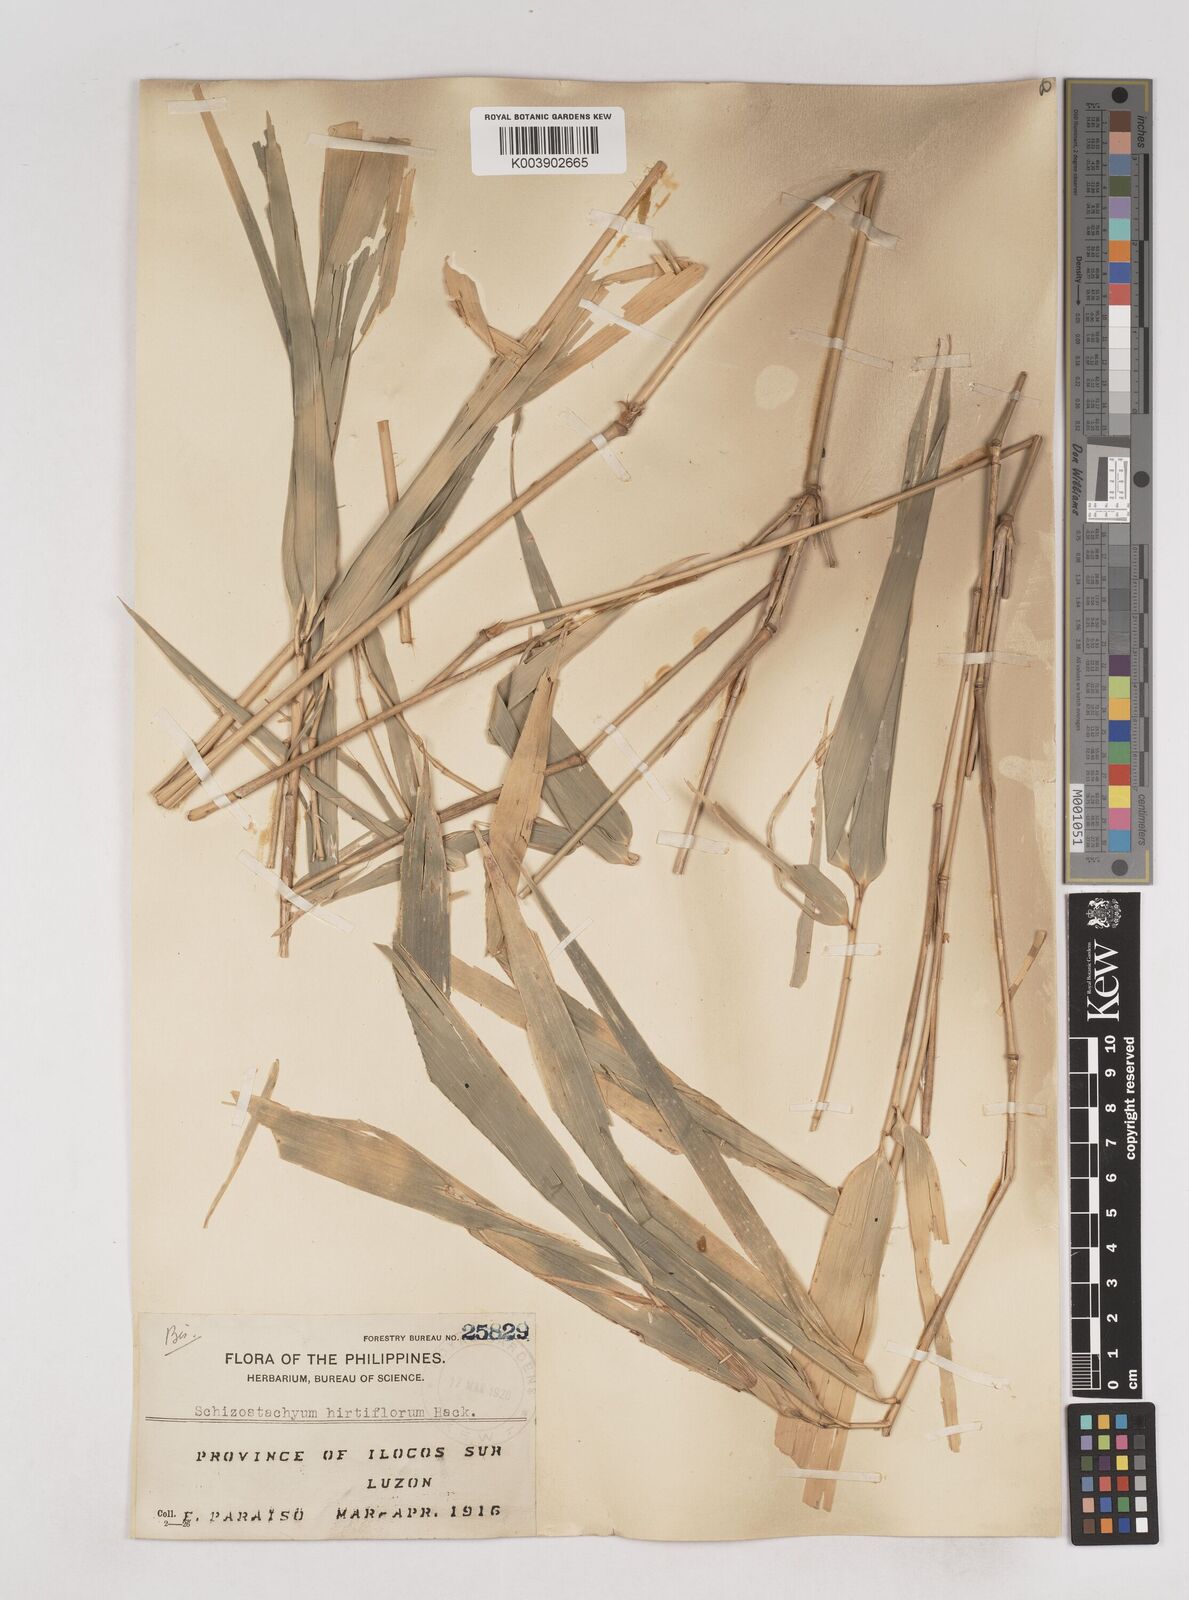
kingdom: Plantae
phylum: Tracheophyta
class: Liliopsida
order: Poales
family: Poaceae
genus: Schizostachyum
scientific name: Schizostachyum lumampao
